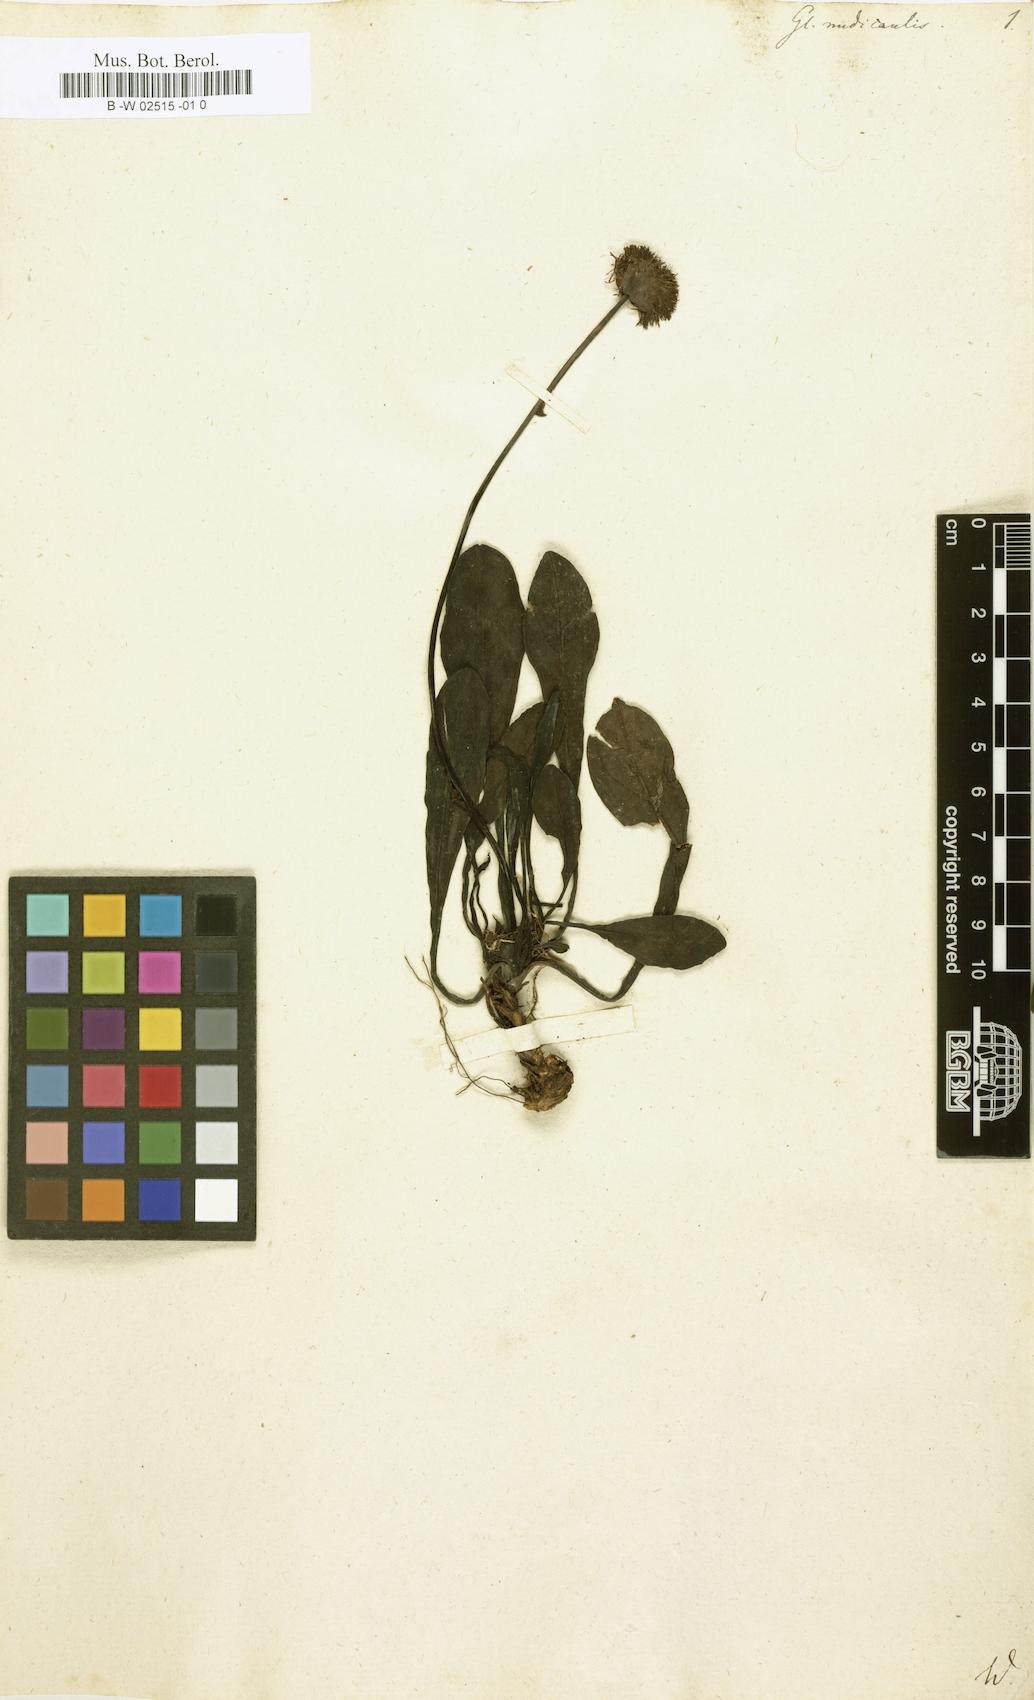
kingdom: Plantae
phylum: Tracheophyta
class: Magnoliopsida
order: Lamiales
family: Plantaginaceae
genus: Globularia
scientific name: Globularia nudicaulis
